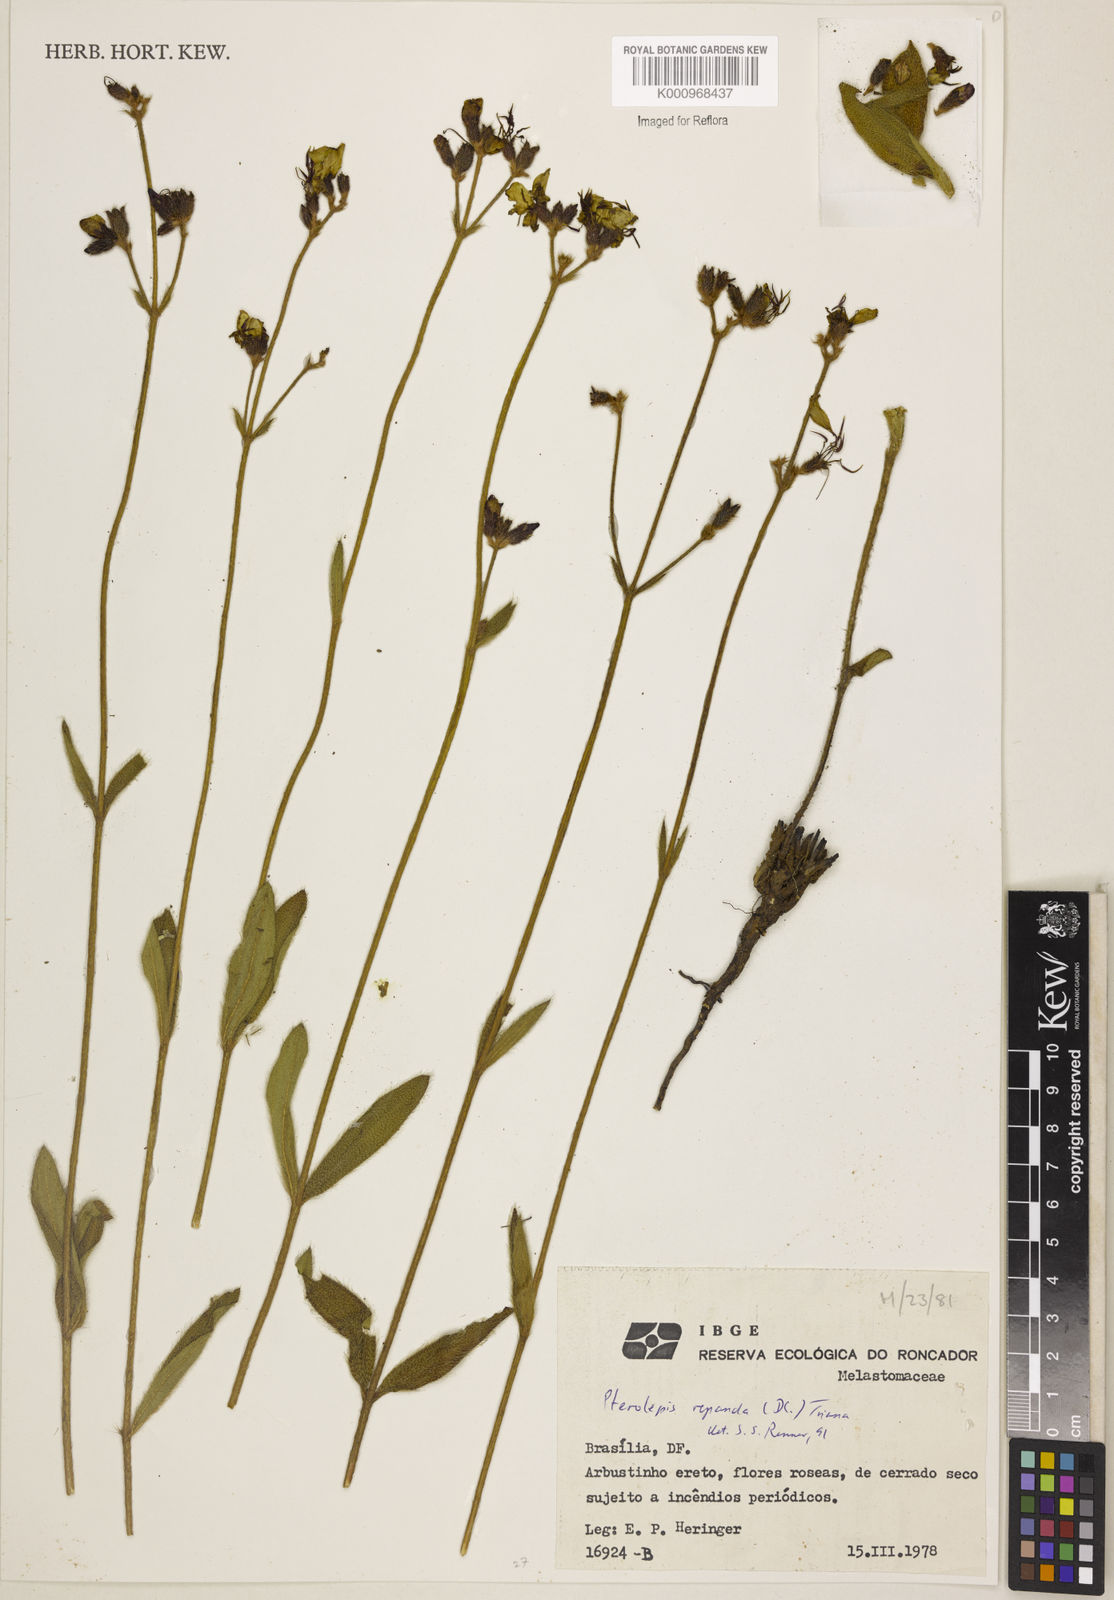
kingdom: Plantae
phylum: Tracheophyta
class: Magnoliopsida
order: Myrtales
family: Melastomataceae
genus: Pterolepis
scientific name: Pterolepis repanda
